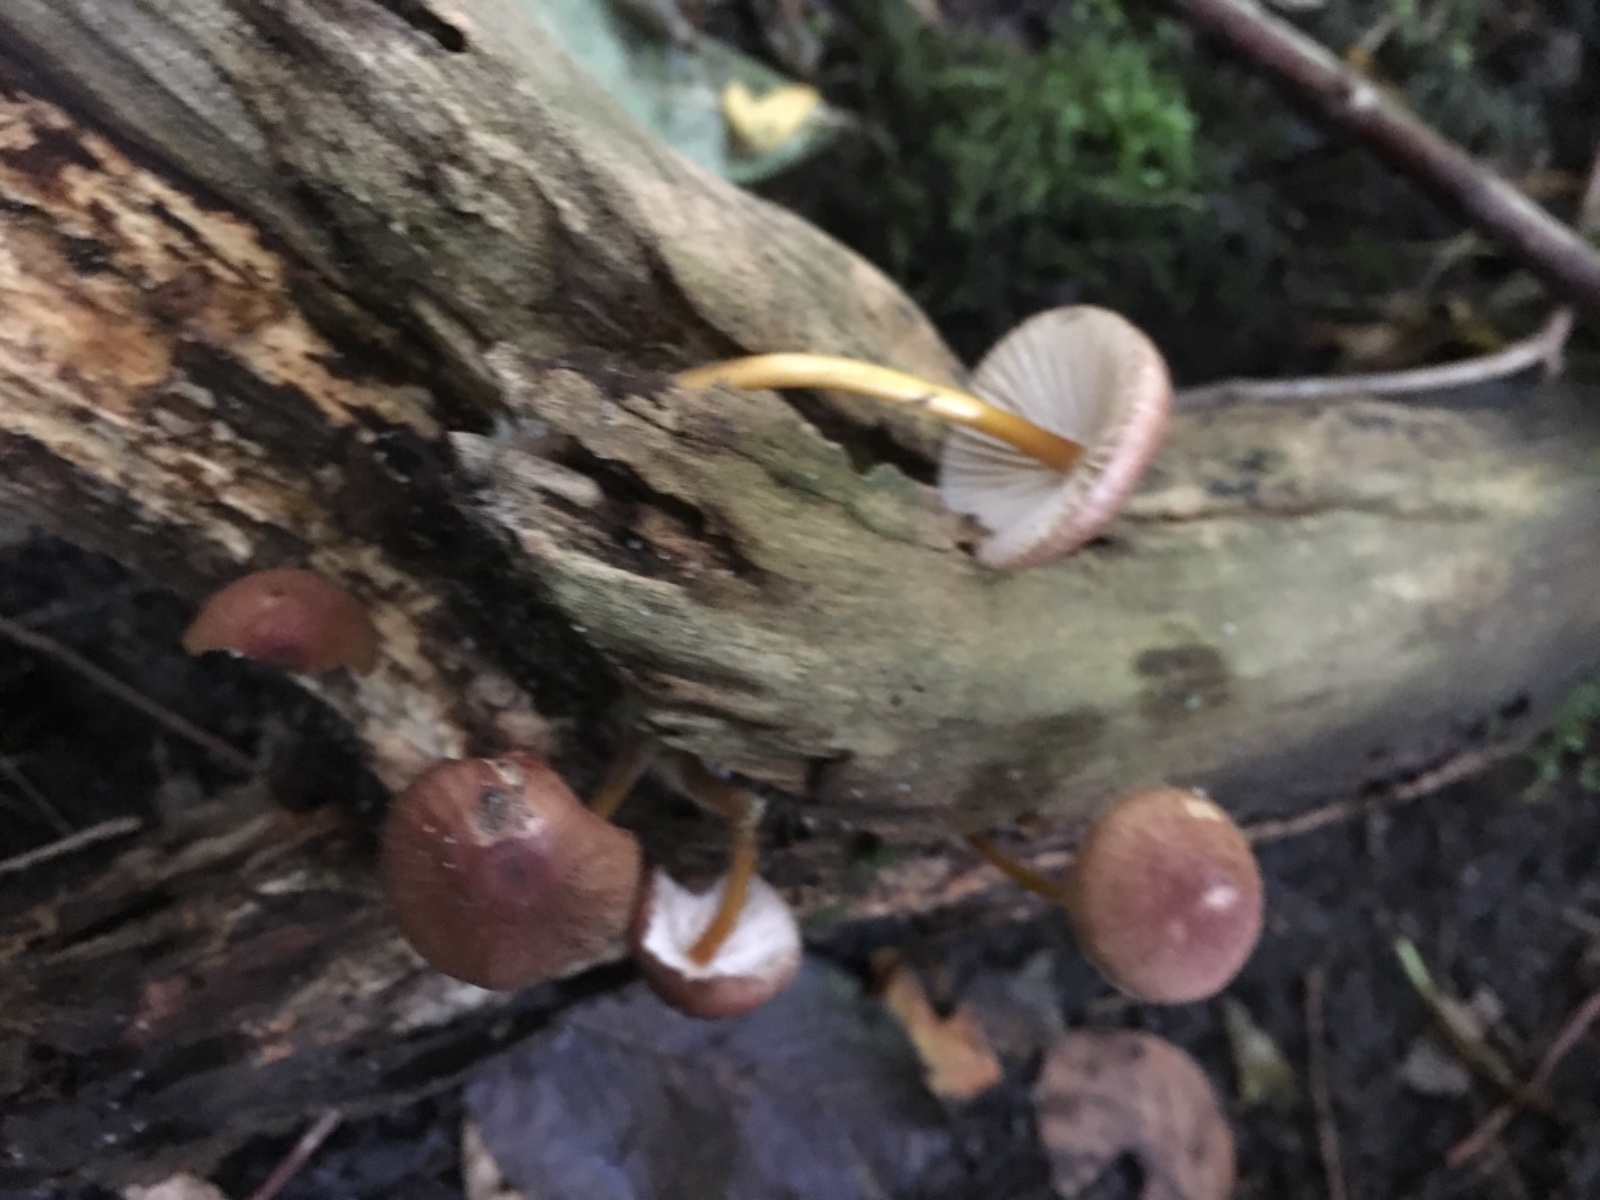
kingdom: Fungi
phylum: Basidiomycota
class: Agaricomycetes
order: Agaricales
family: Mycenaceae
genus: Mycena
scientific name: Mycena renati
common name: smuk huesvamp
